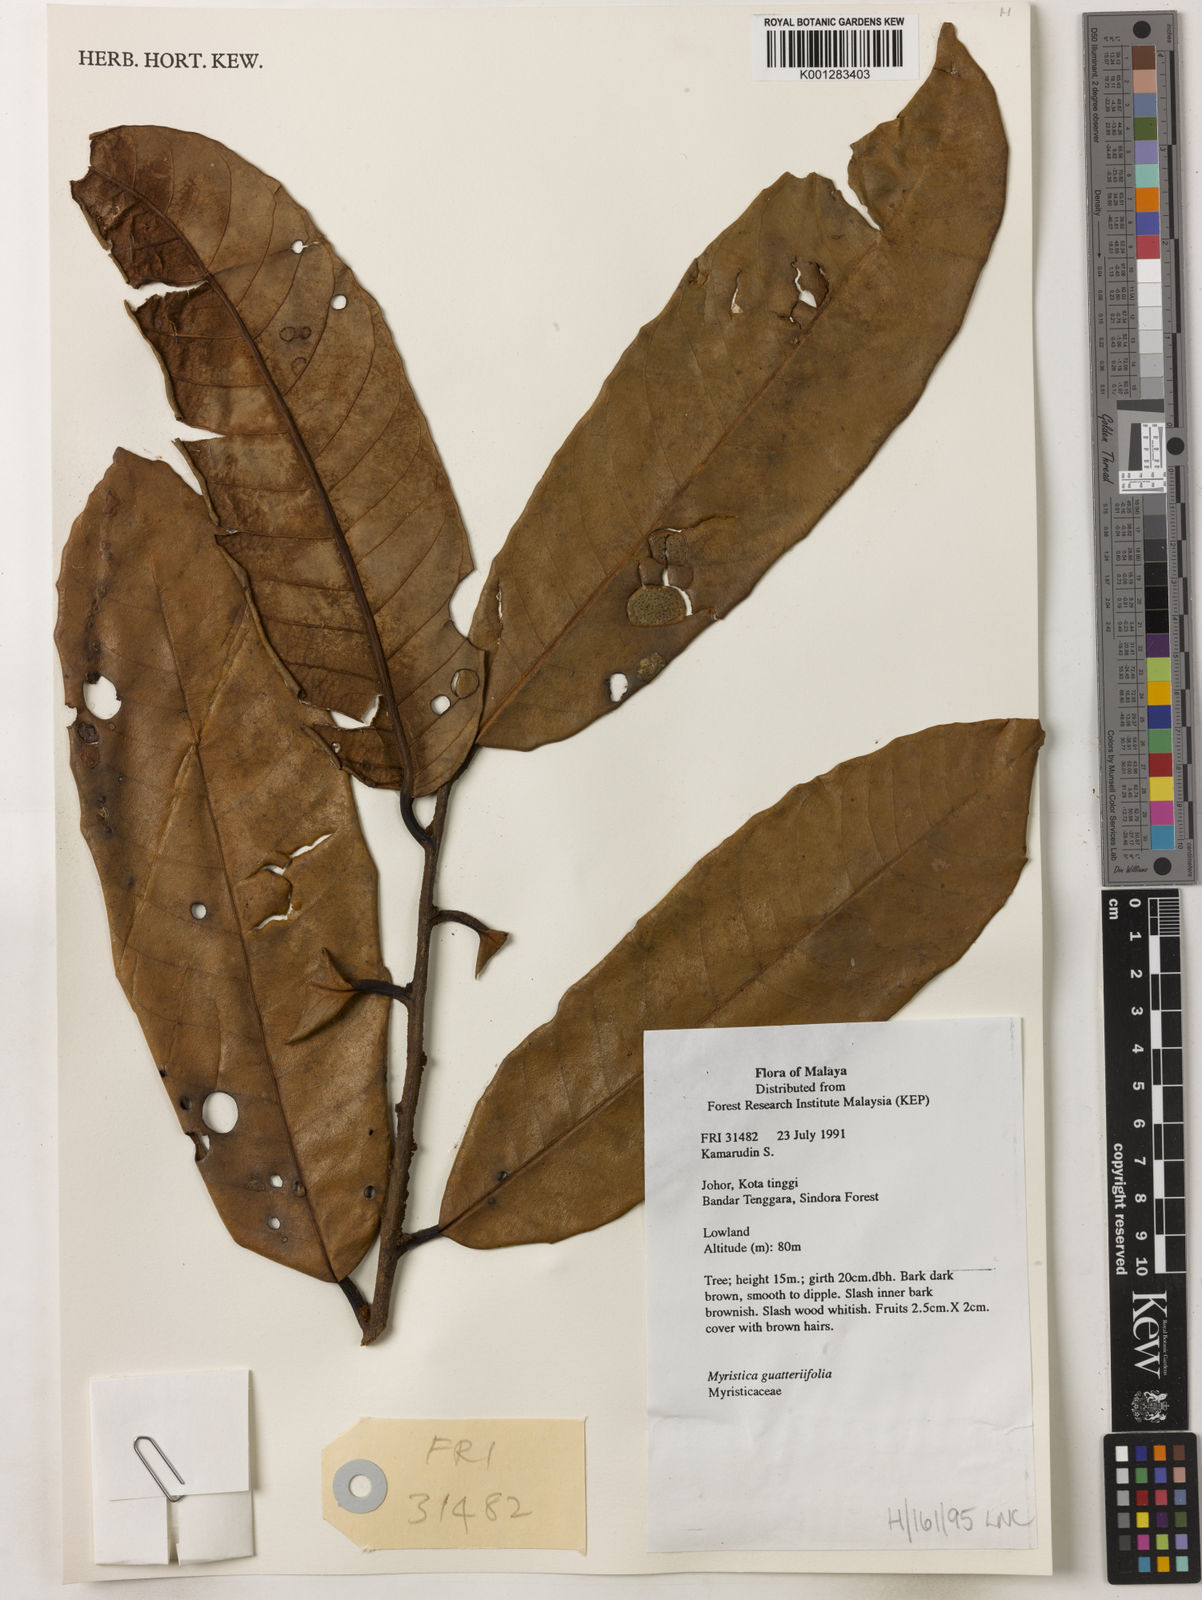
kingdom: Plantae
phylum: Tracheophyta
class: Magnoliopsida
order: Magnoliales
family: Myristicaceae
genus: Myristica
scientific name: Myristica
